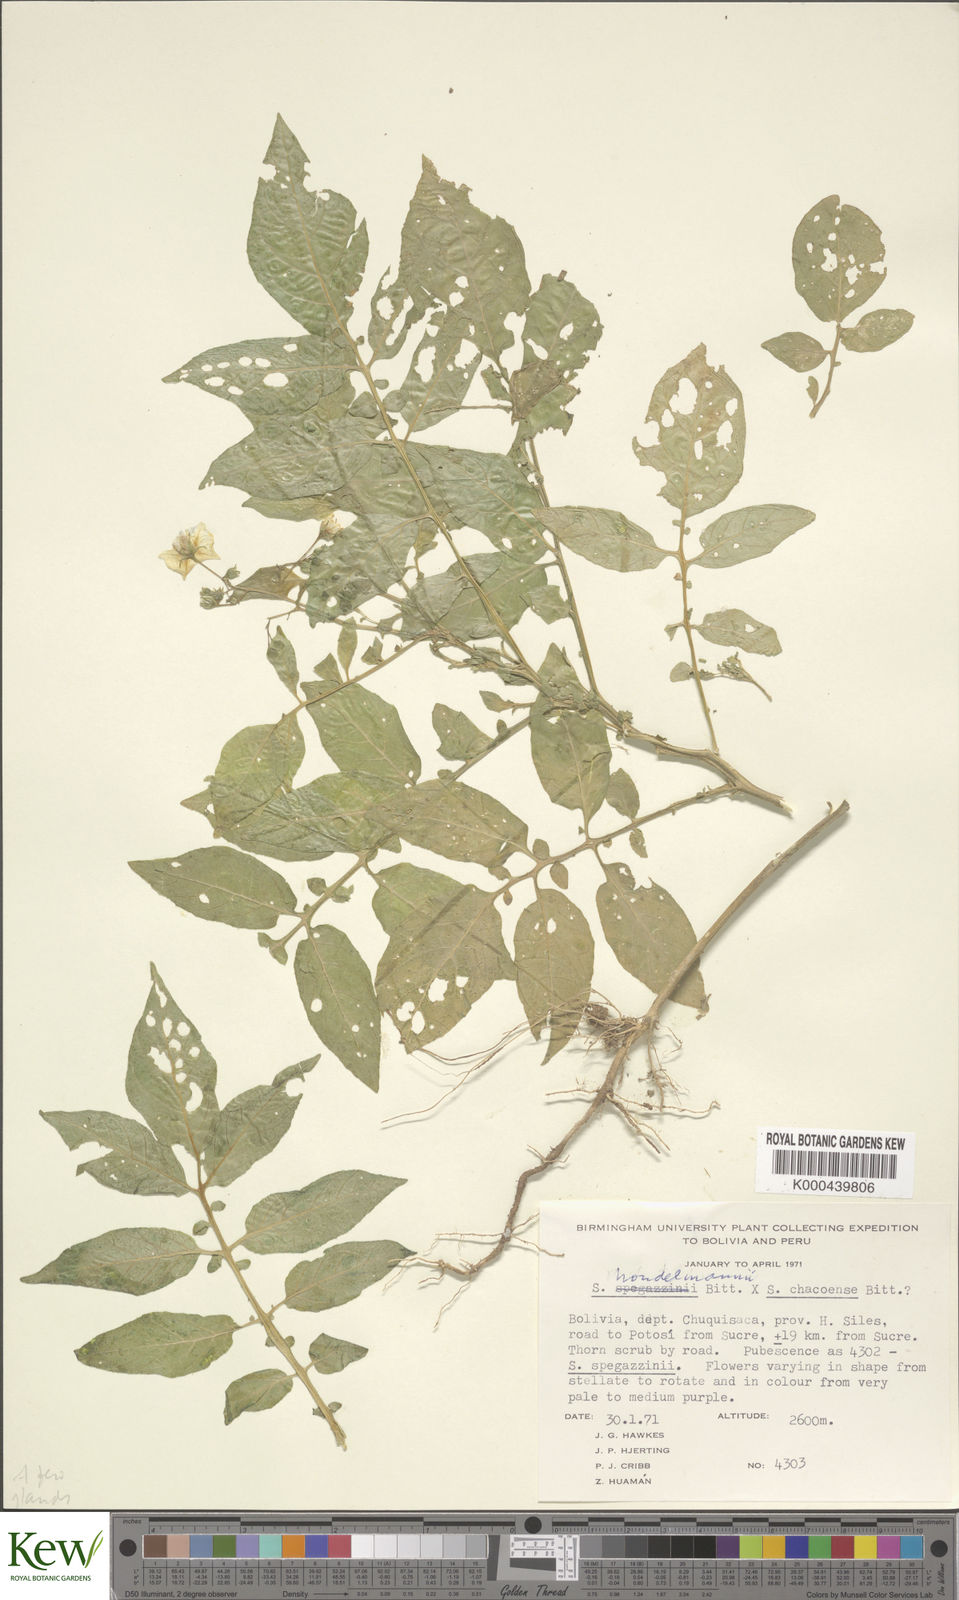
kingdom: Plantae
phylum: Tracheophyta
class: Magnoliopsida
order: Solanales
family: Solanaceae
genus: Solanum
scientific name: Solanum brevicaule
